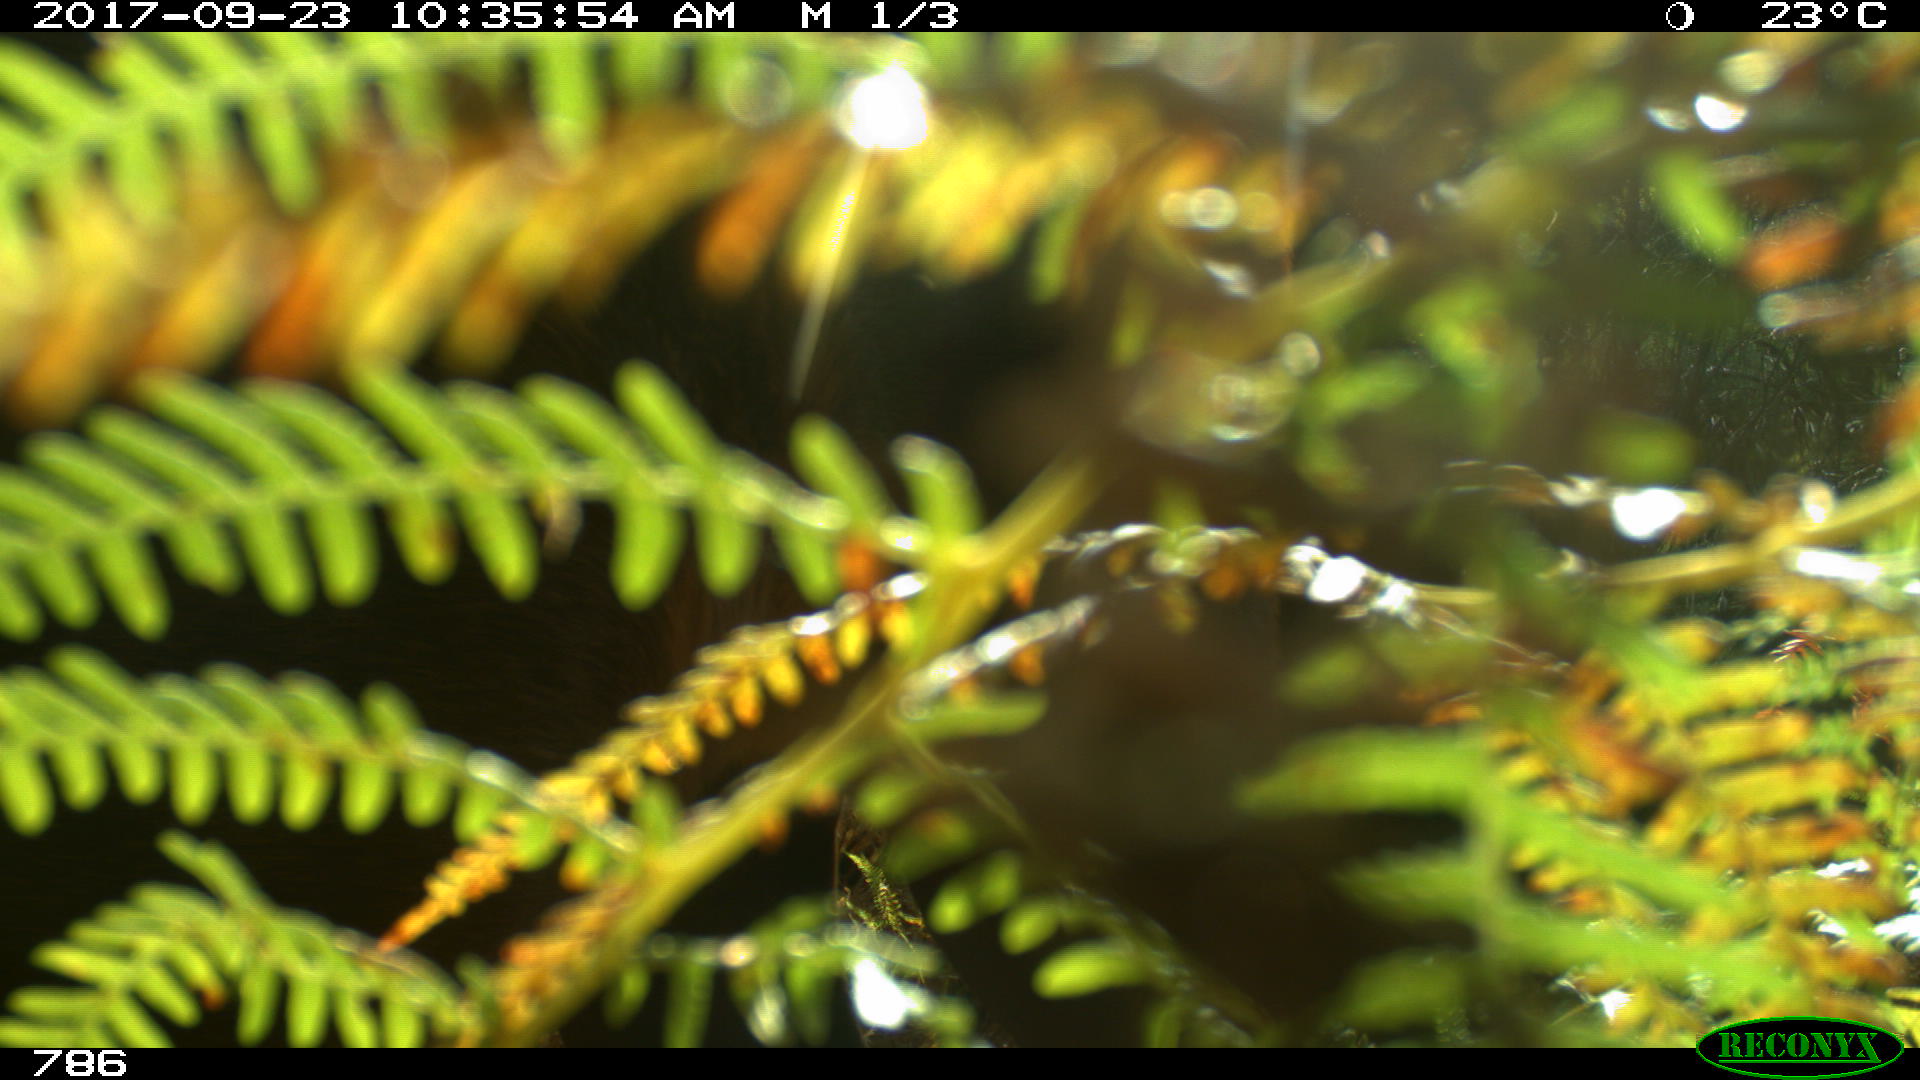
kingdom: Animalia
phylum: Chordata
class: Mammalia
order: Perissodactyla
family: Equidae
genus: Equus
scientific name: Equus caballus
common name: Horse
